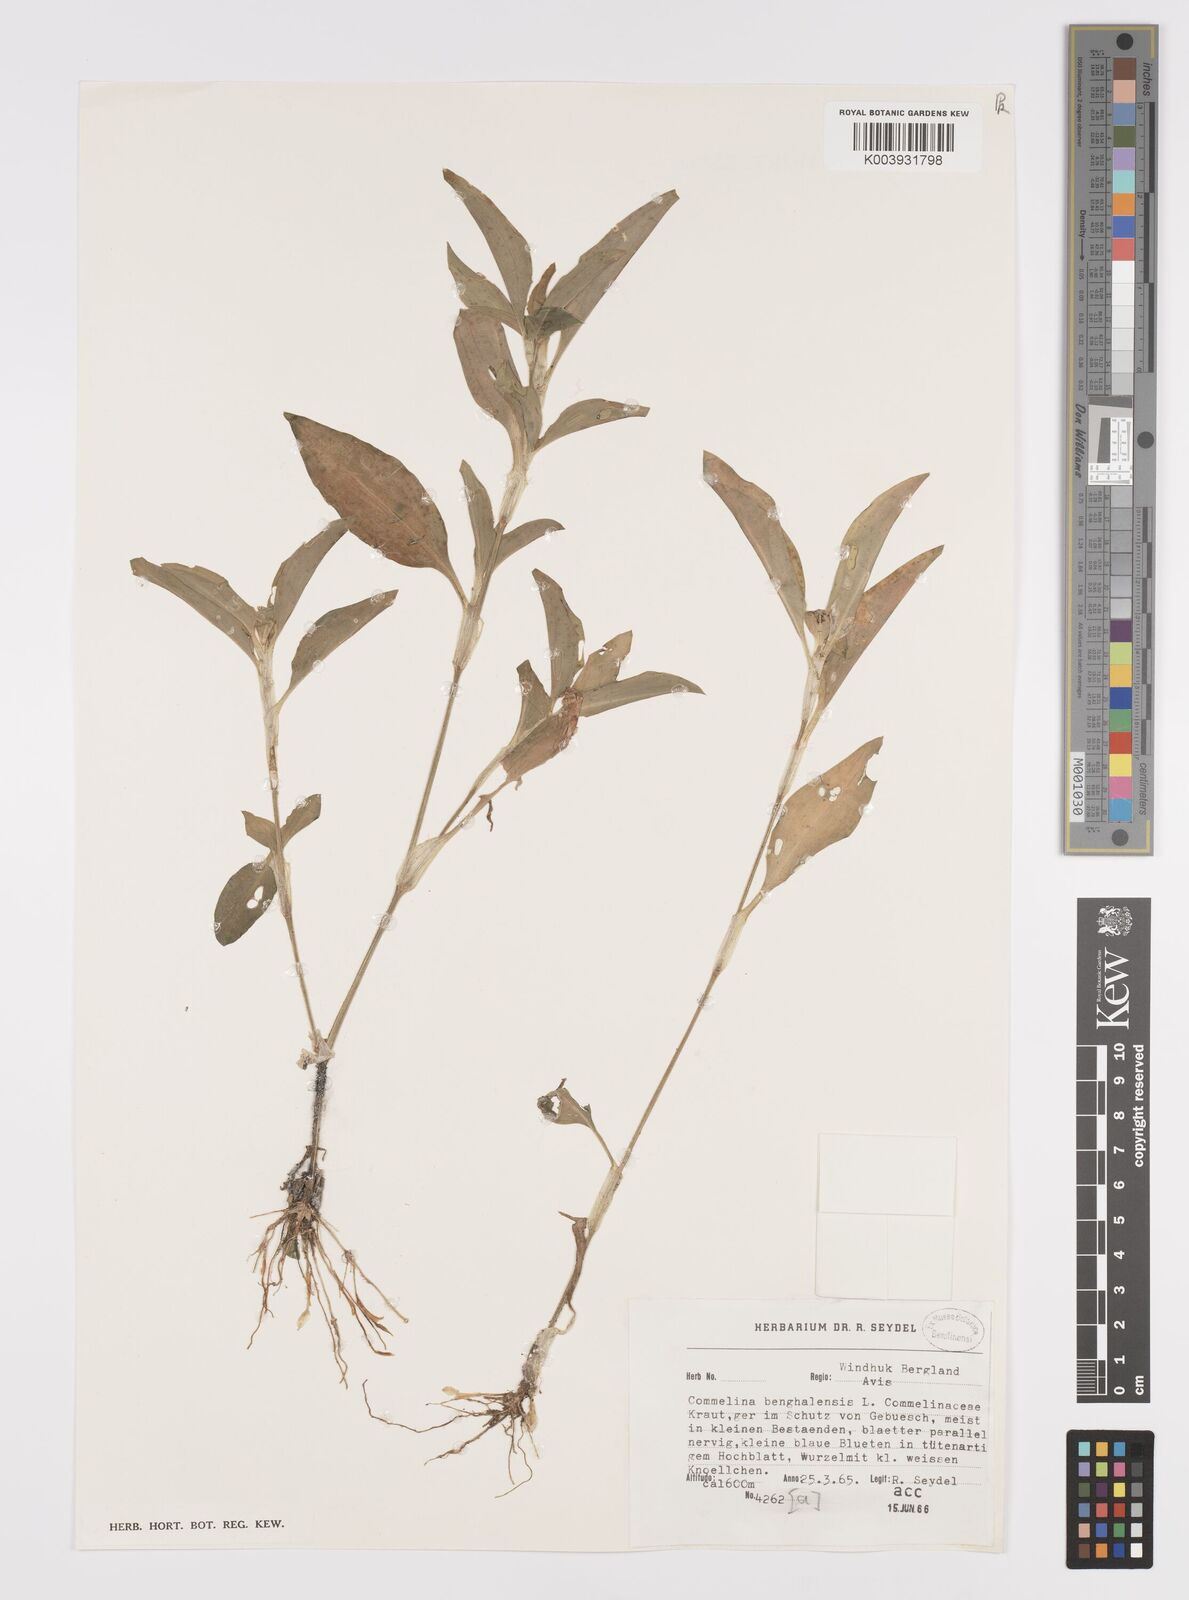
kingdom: Plantae
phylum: Tracheophyta
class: Liliopsida
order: Commelinales
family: Commelinaceae
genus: Commelina
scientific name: Commelina benghalensis
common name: Jio
